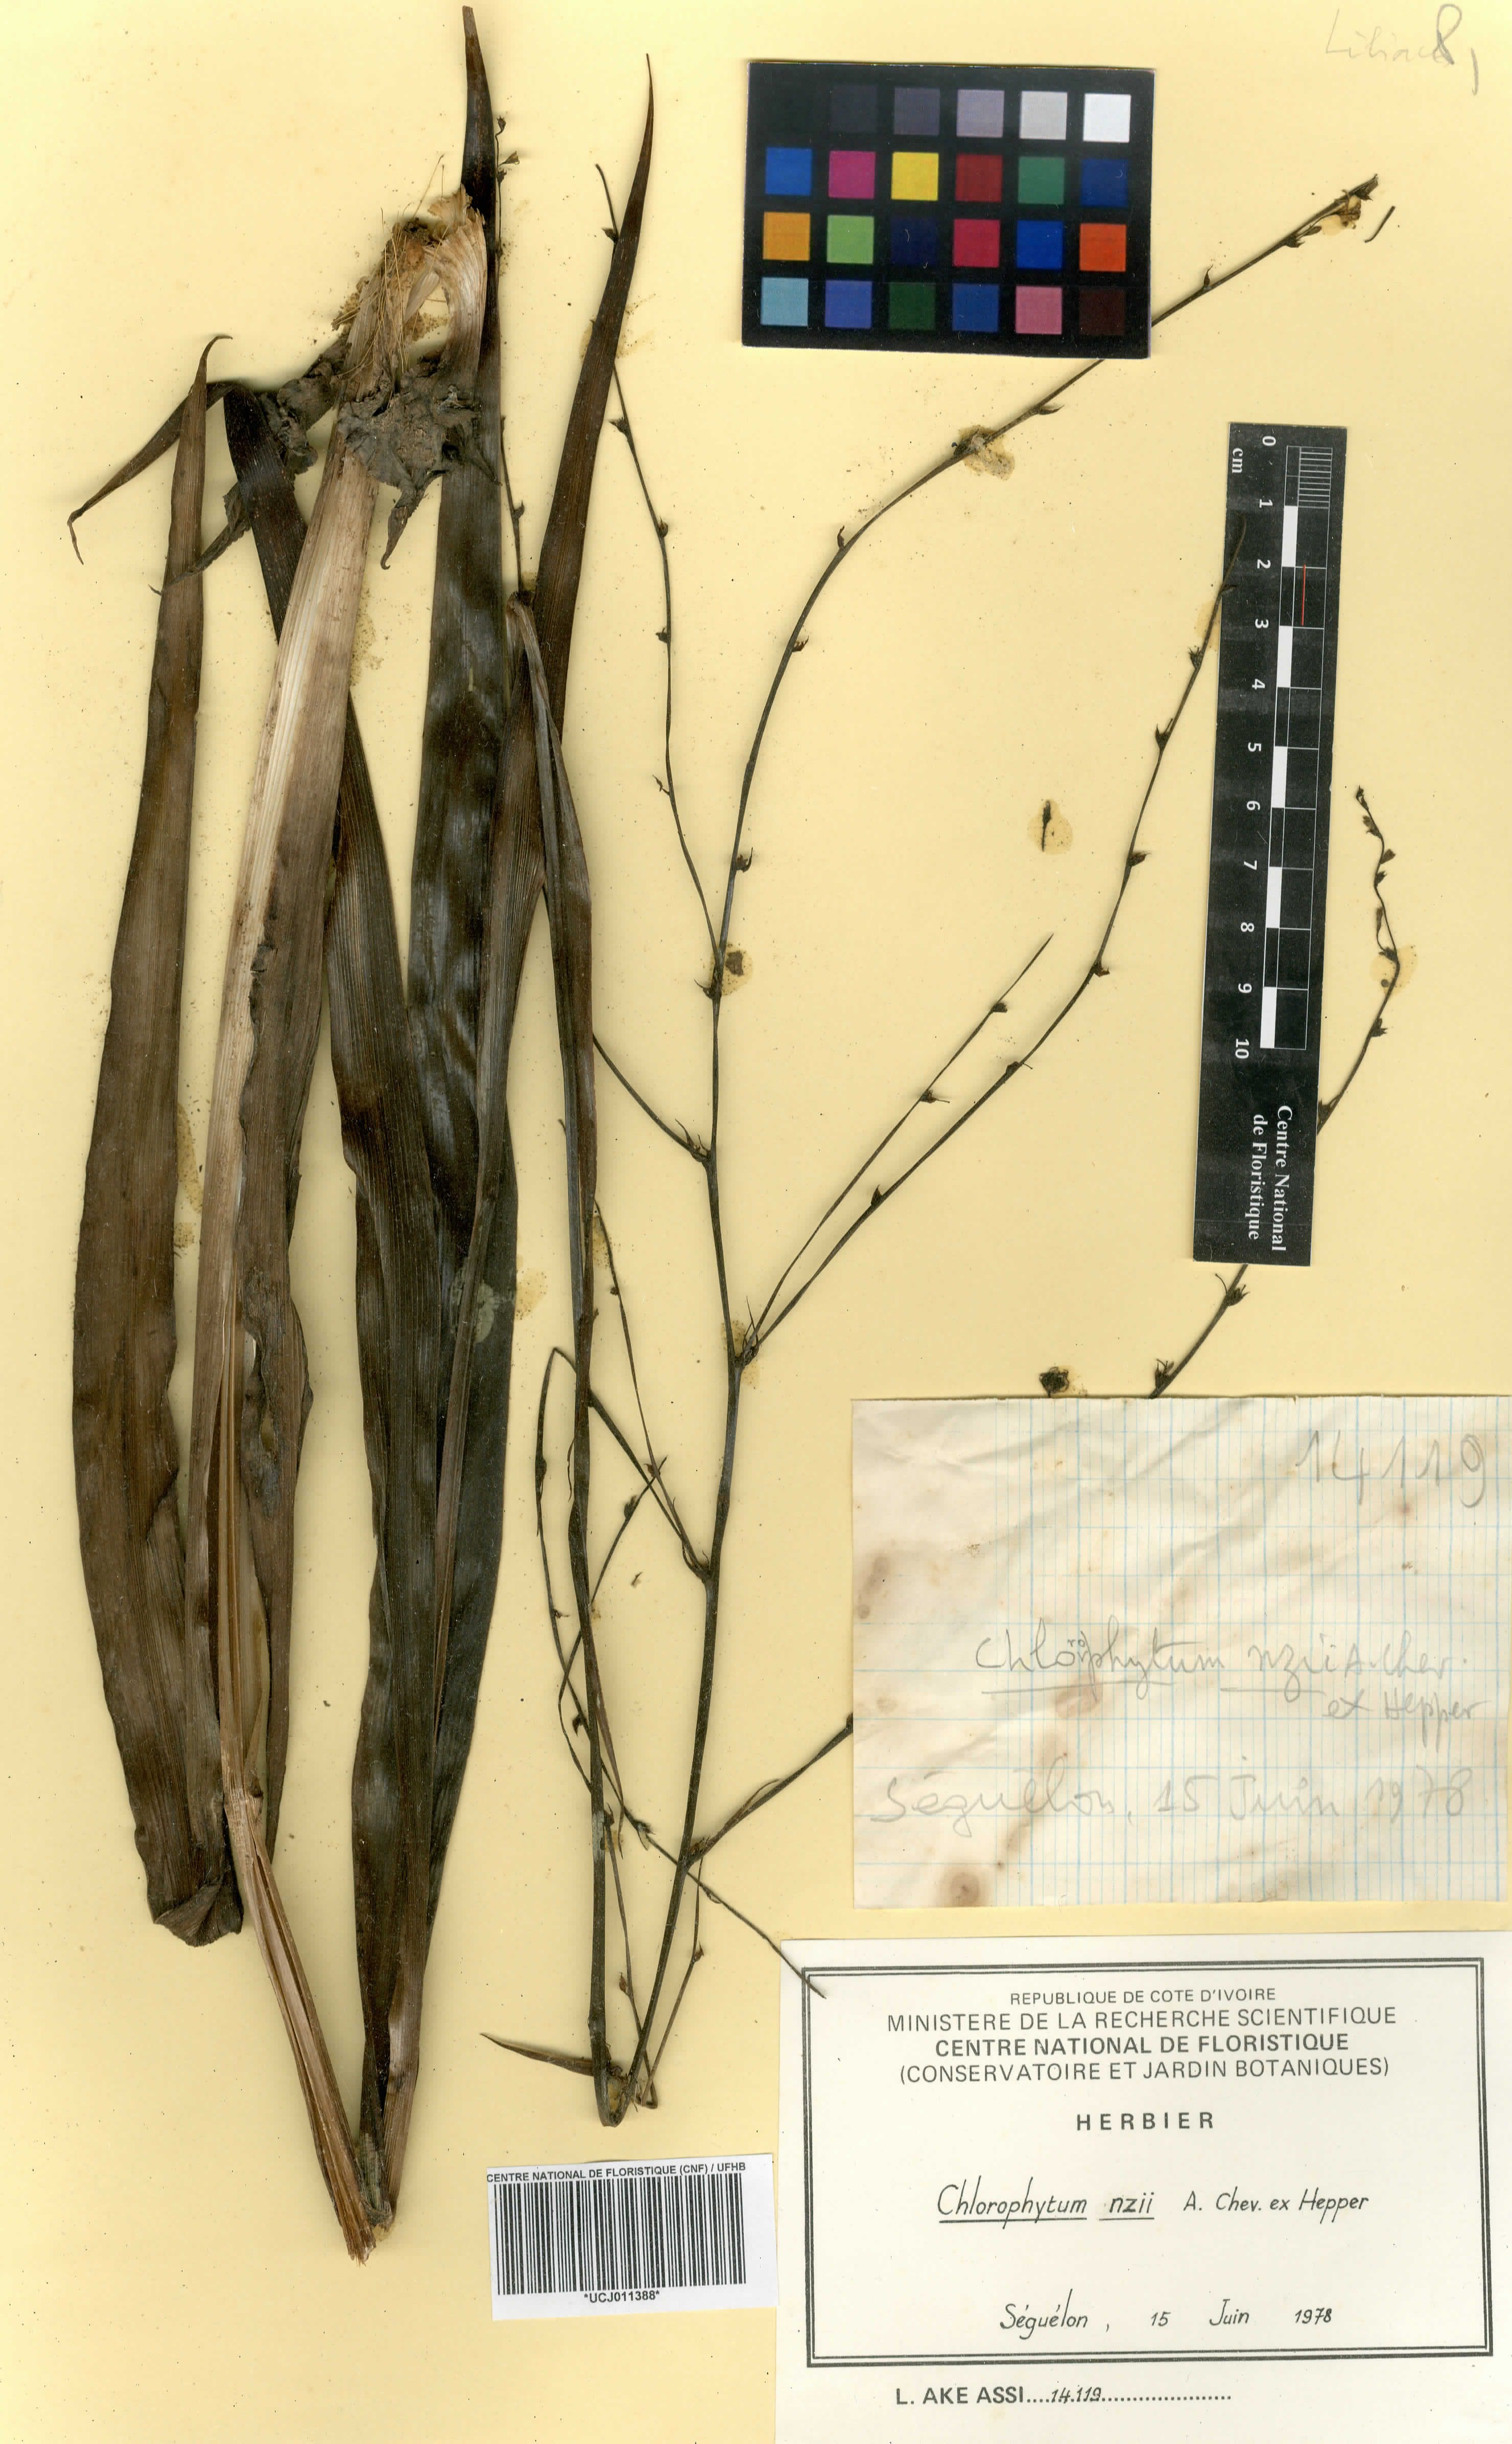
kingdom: Plantae
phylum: Tracheophyta
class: Liliopsida
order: Asparagales
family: Asparagaceae
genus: Chlorophytum
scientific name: Chlorophytum nzii
